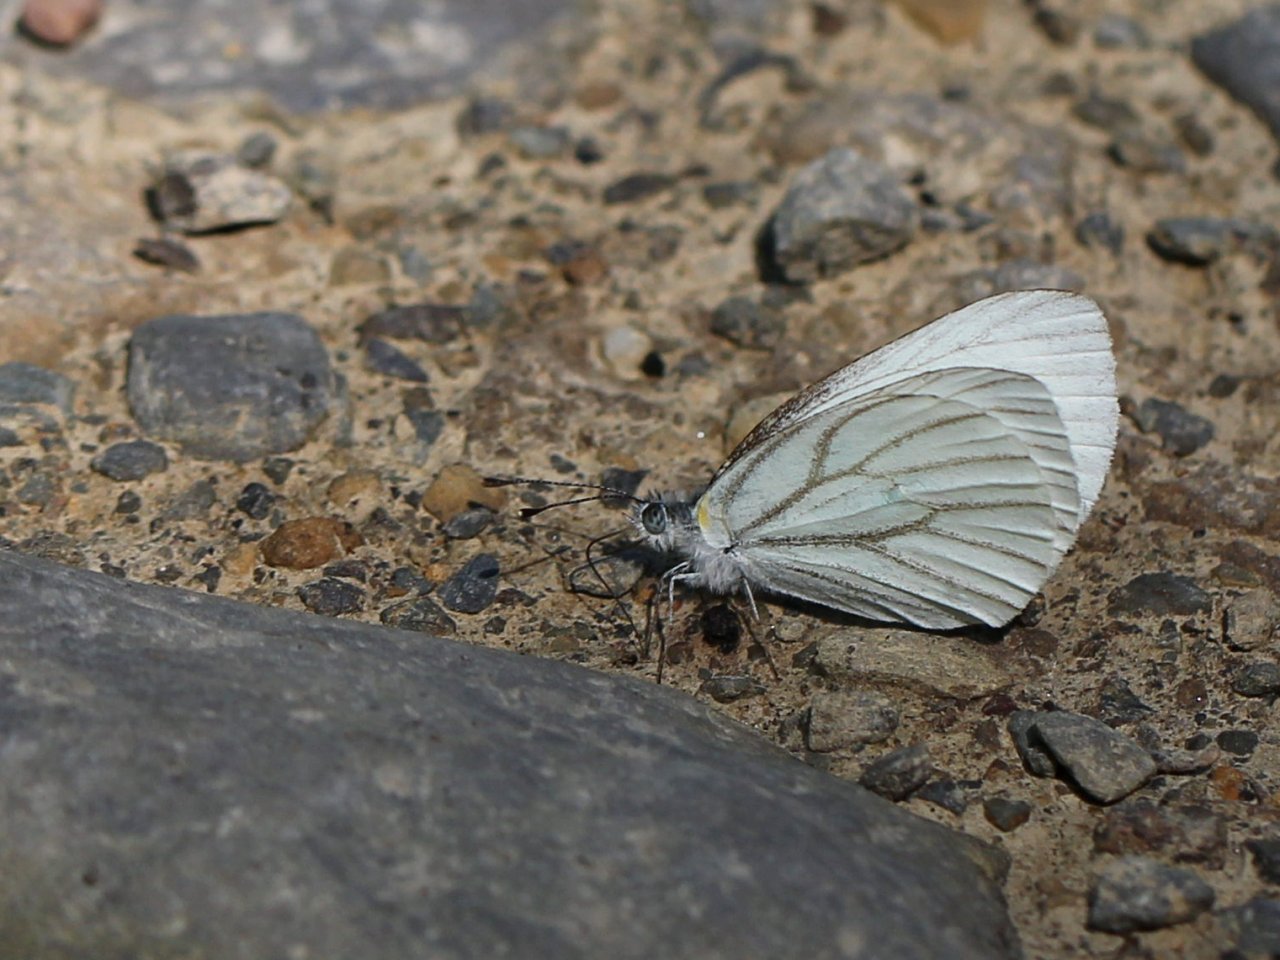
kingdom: Animalia
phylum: Arthropoda
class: Insecta
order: Lepidoptera
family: Pieridae
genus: Pieris
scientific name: Pieris oleracea
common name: Mustard White
